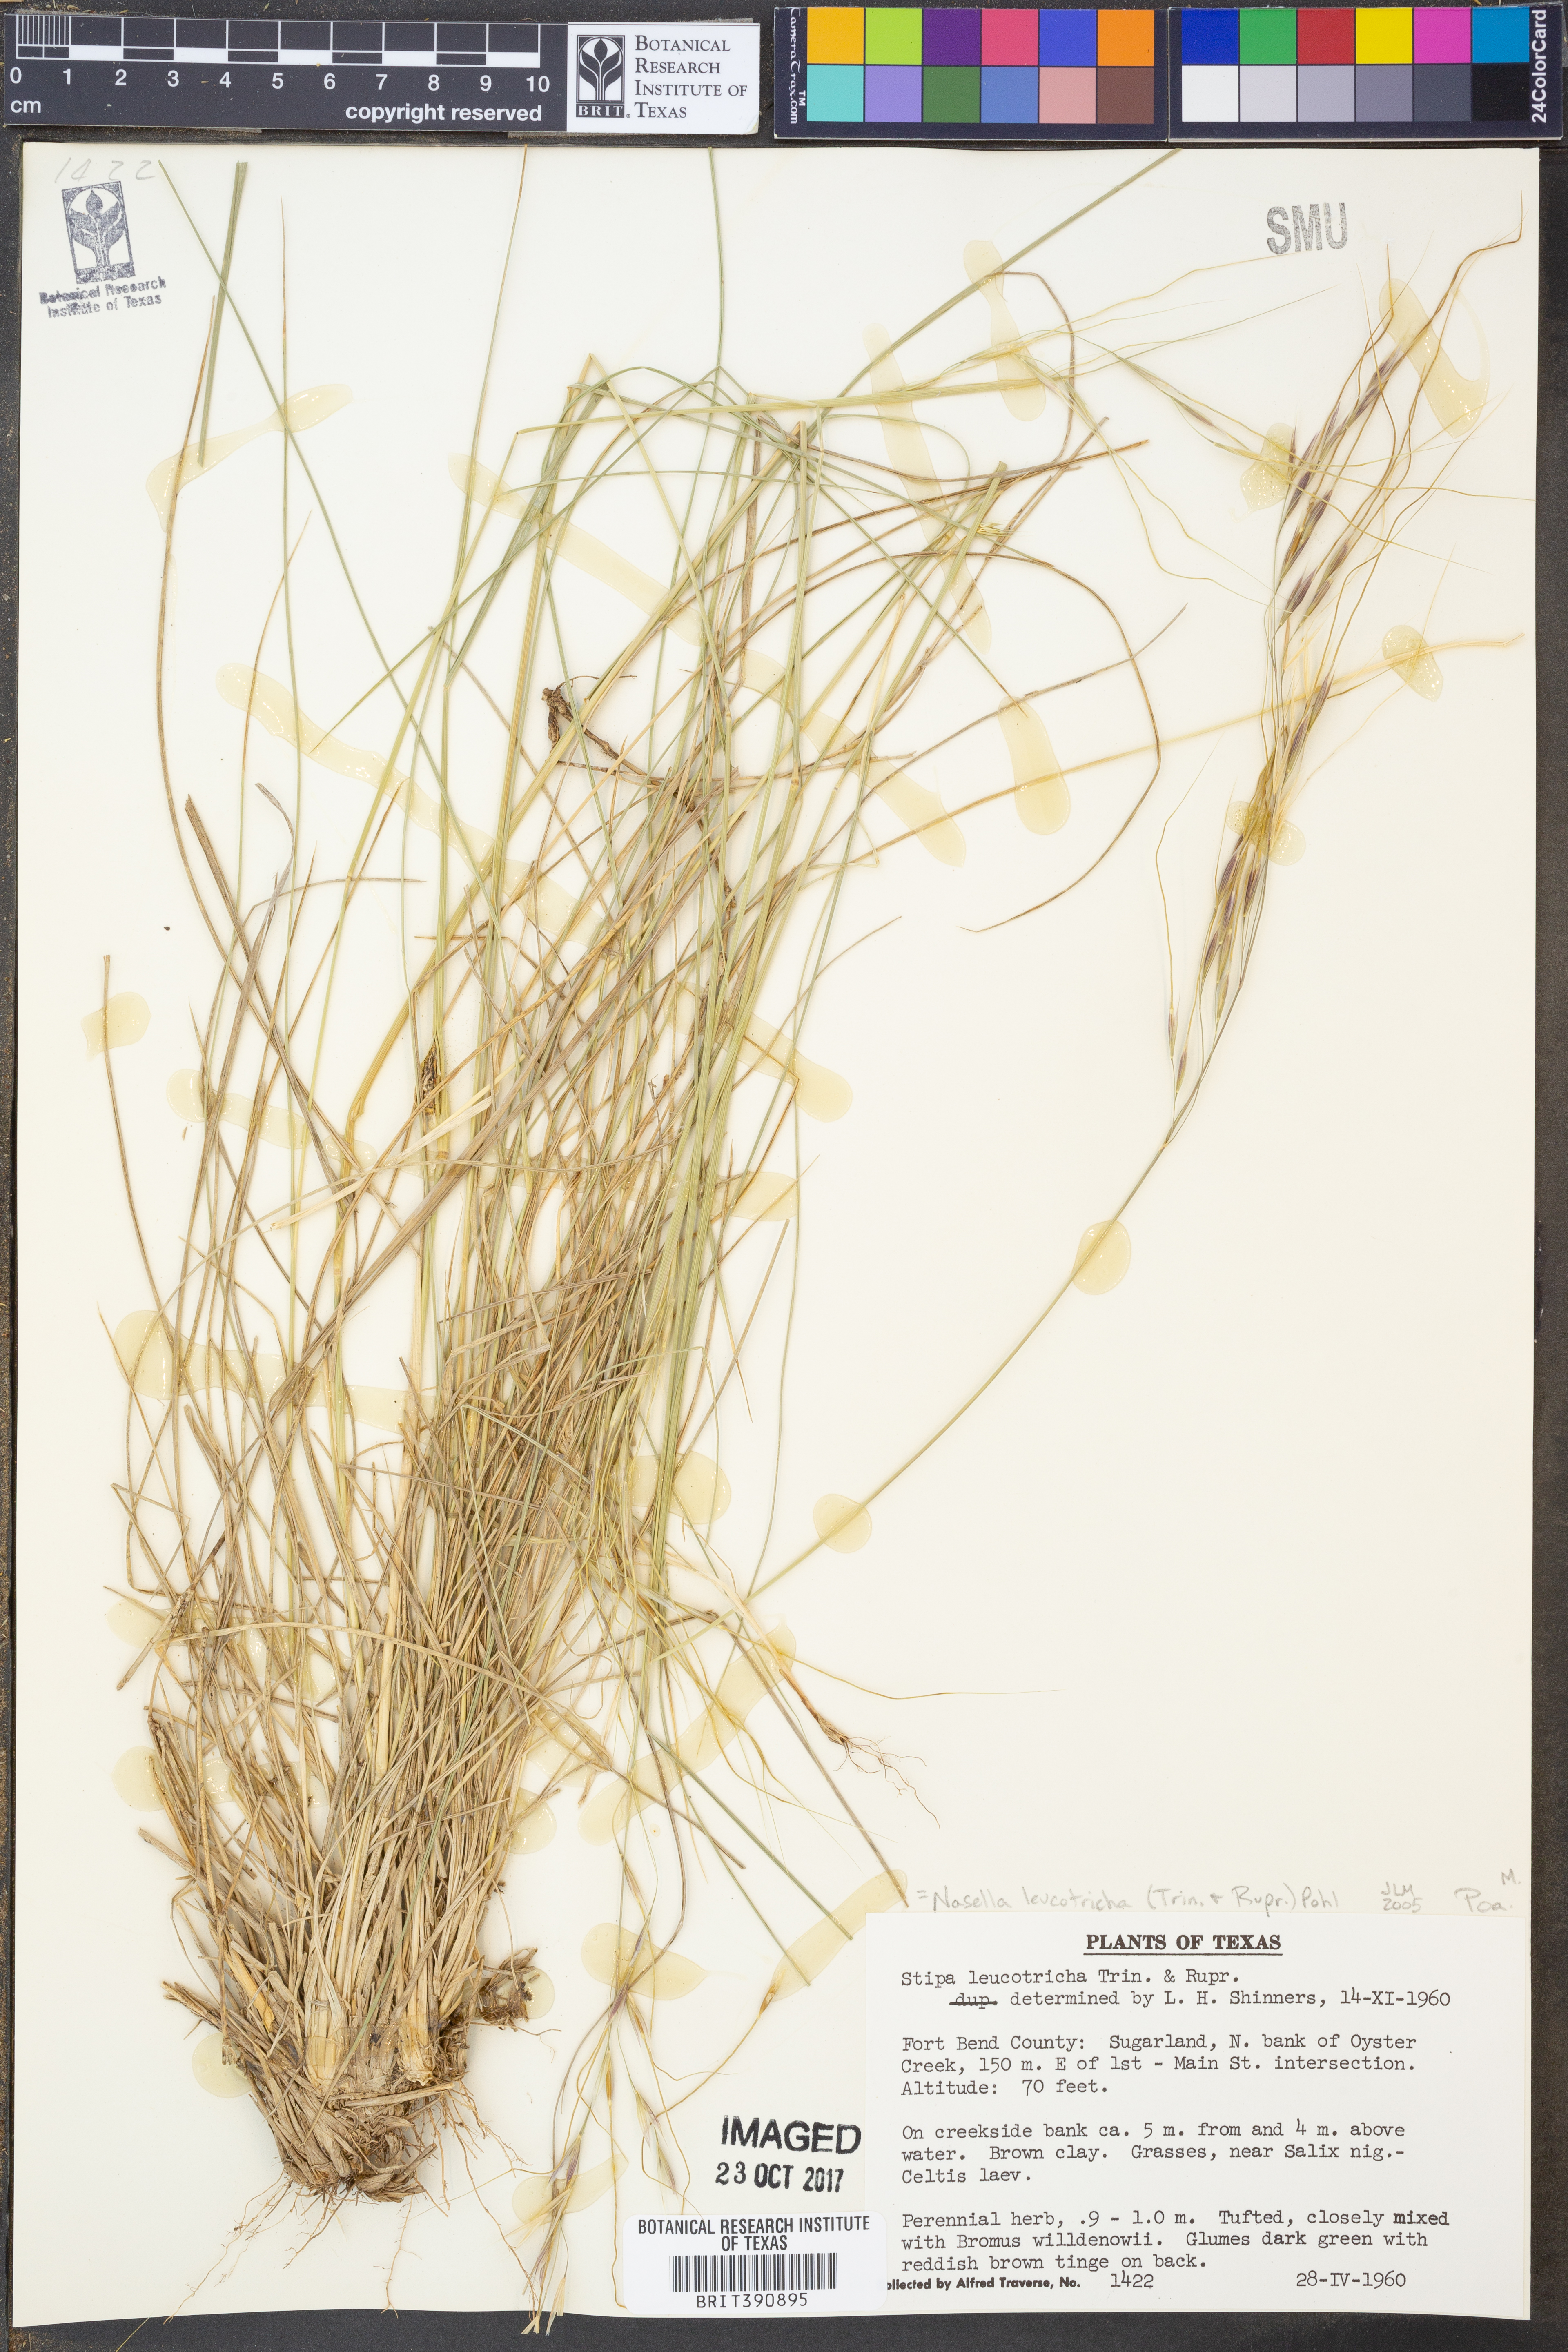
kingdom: Plantae
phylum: Tracheophyta
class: Liliopsida
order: Poales
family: Poaceae
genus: Nassella
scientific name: Nassella leucotricha
